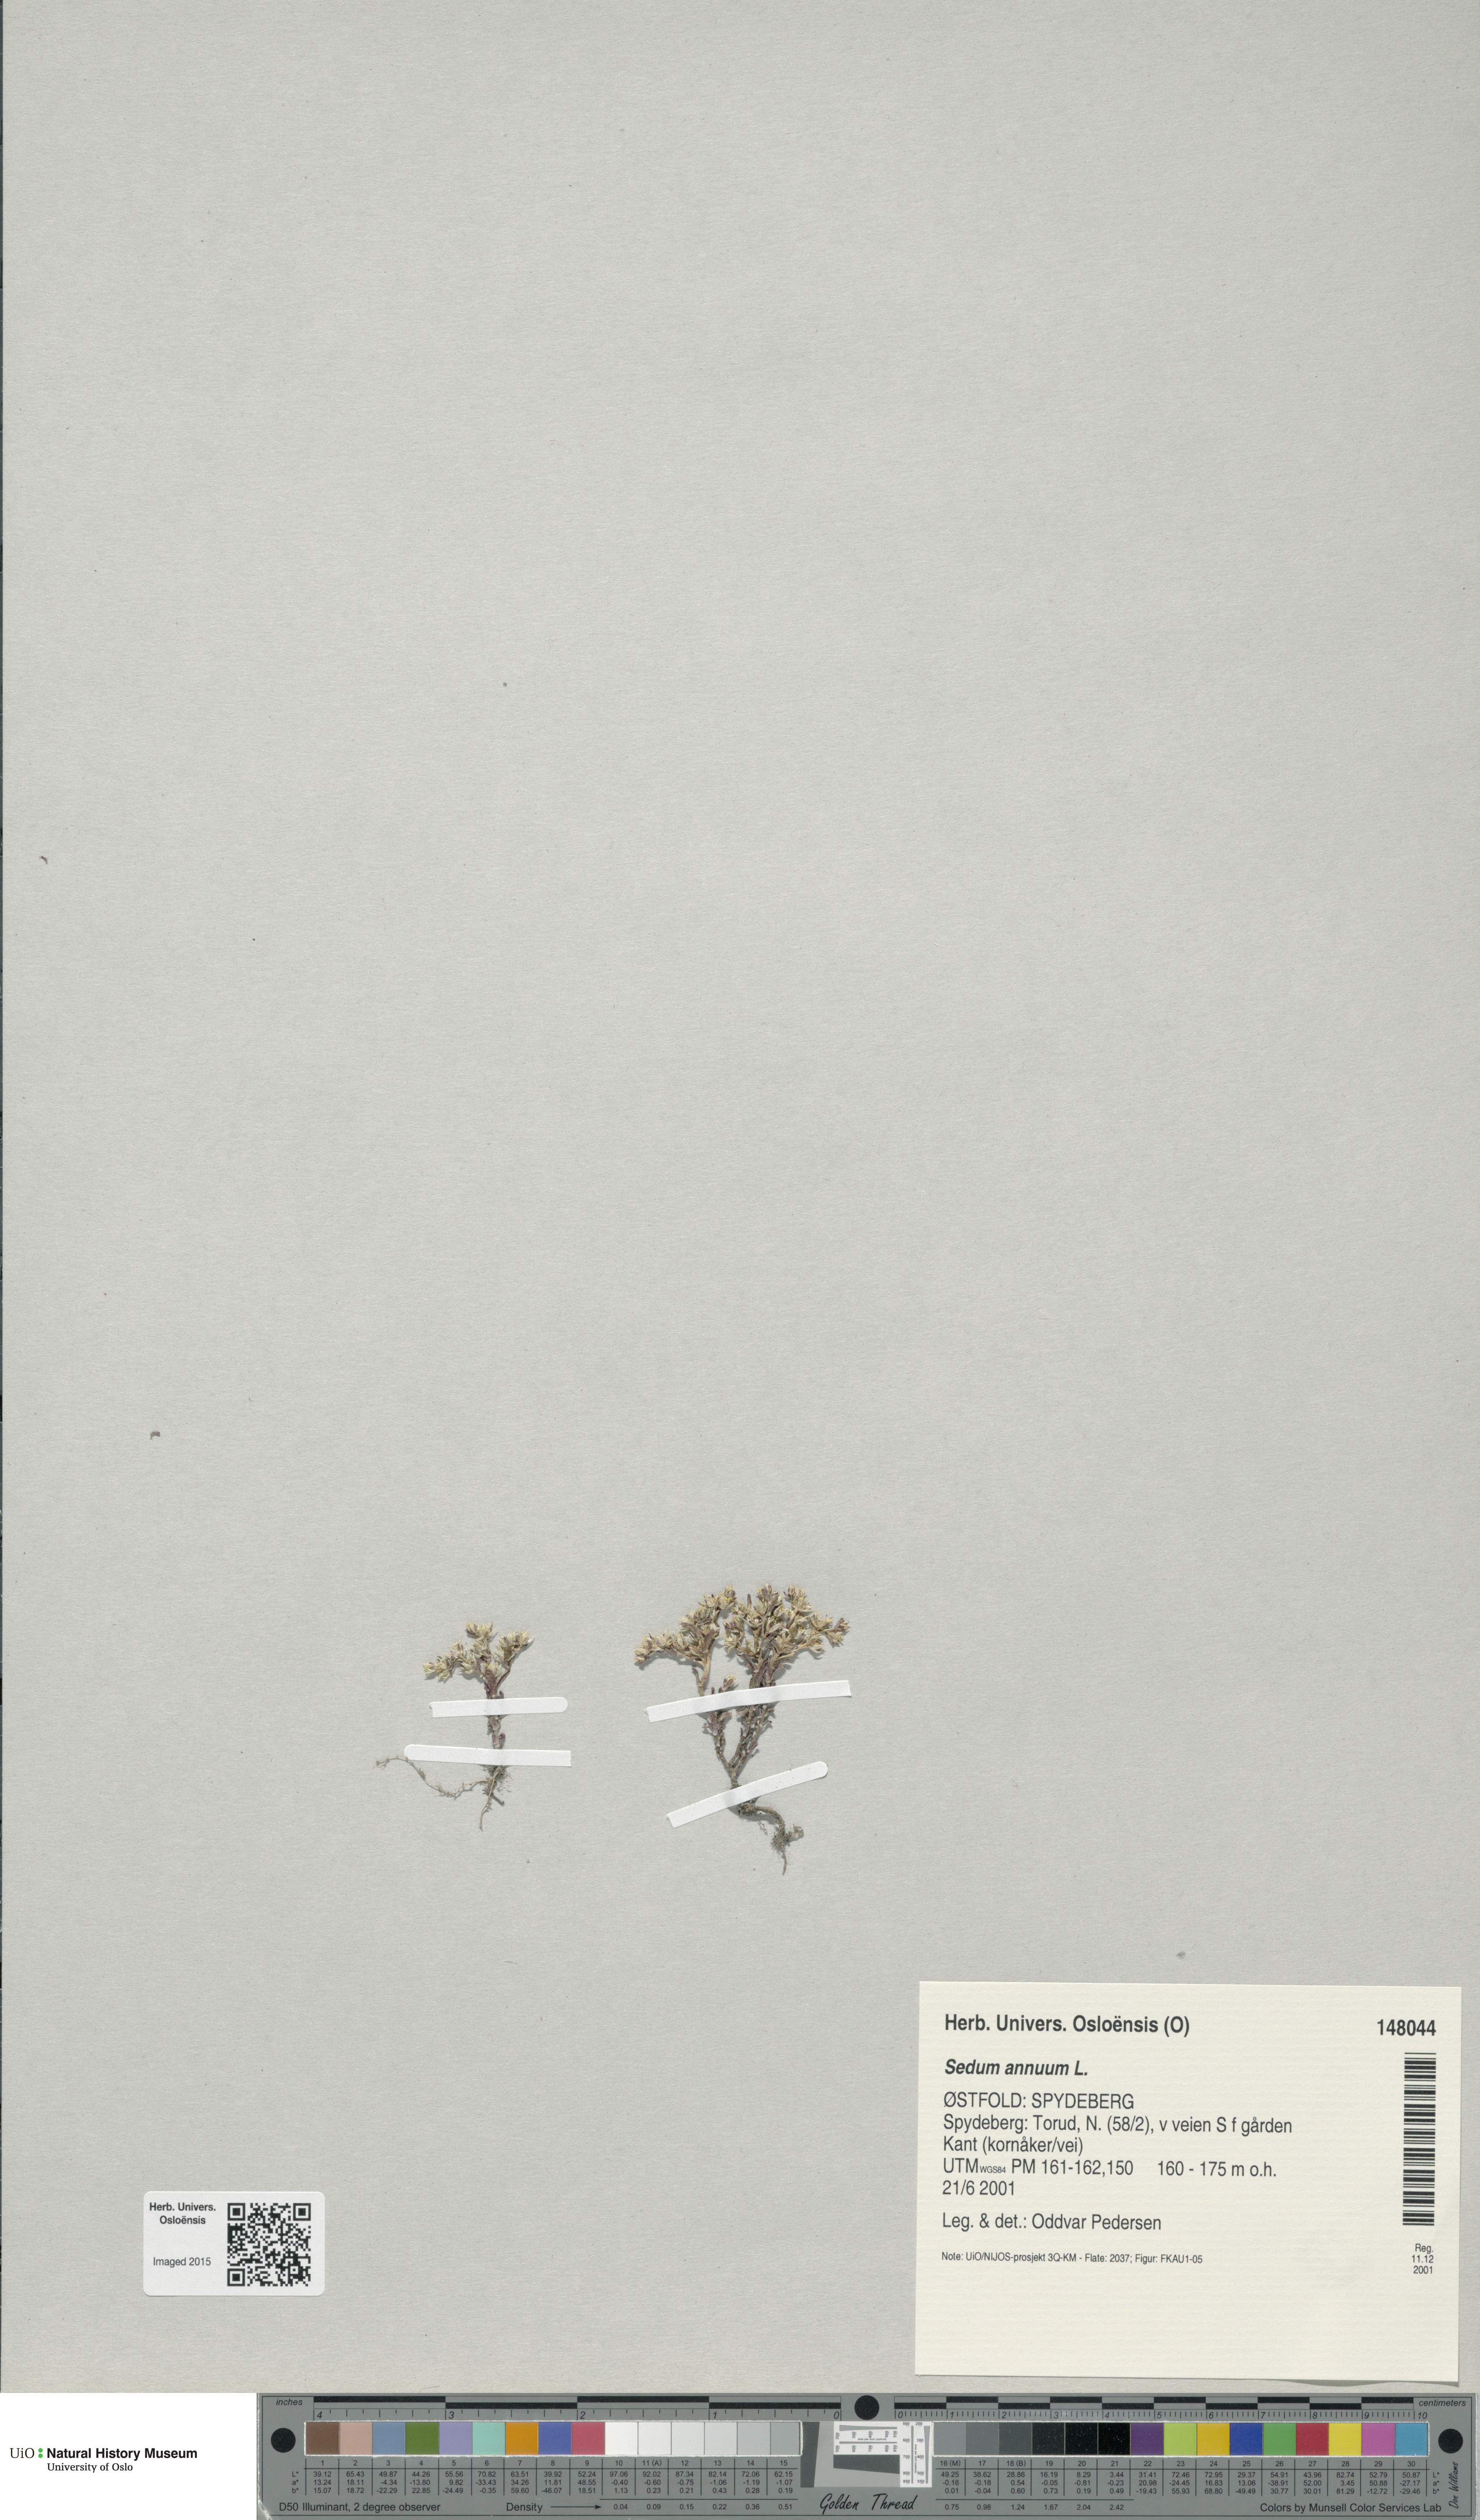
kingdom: Plantae
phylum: Tracheophyta
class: Magnoliopsida
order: Saxifragales
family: Crassulaceae
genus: Sedum
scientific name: Sedum annuum
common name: Annual stonecrop
